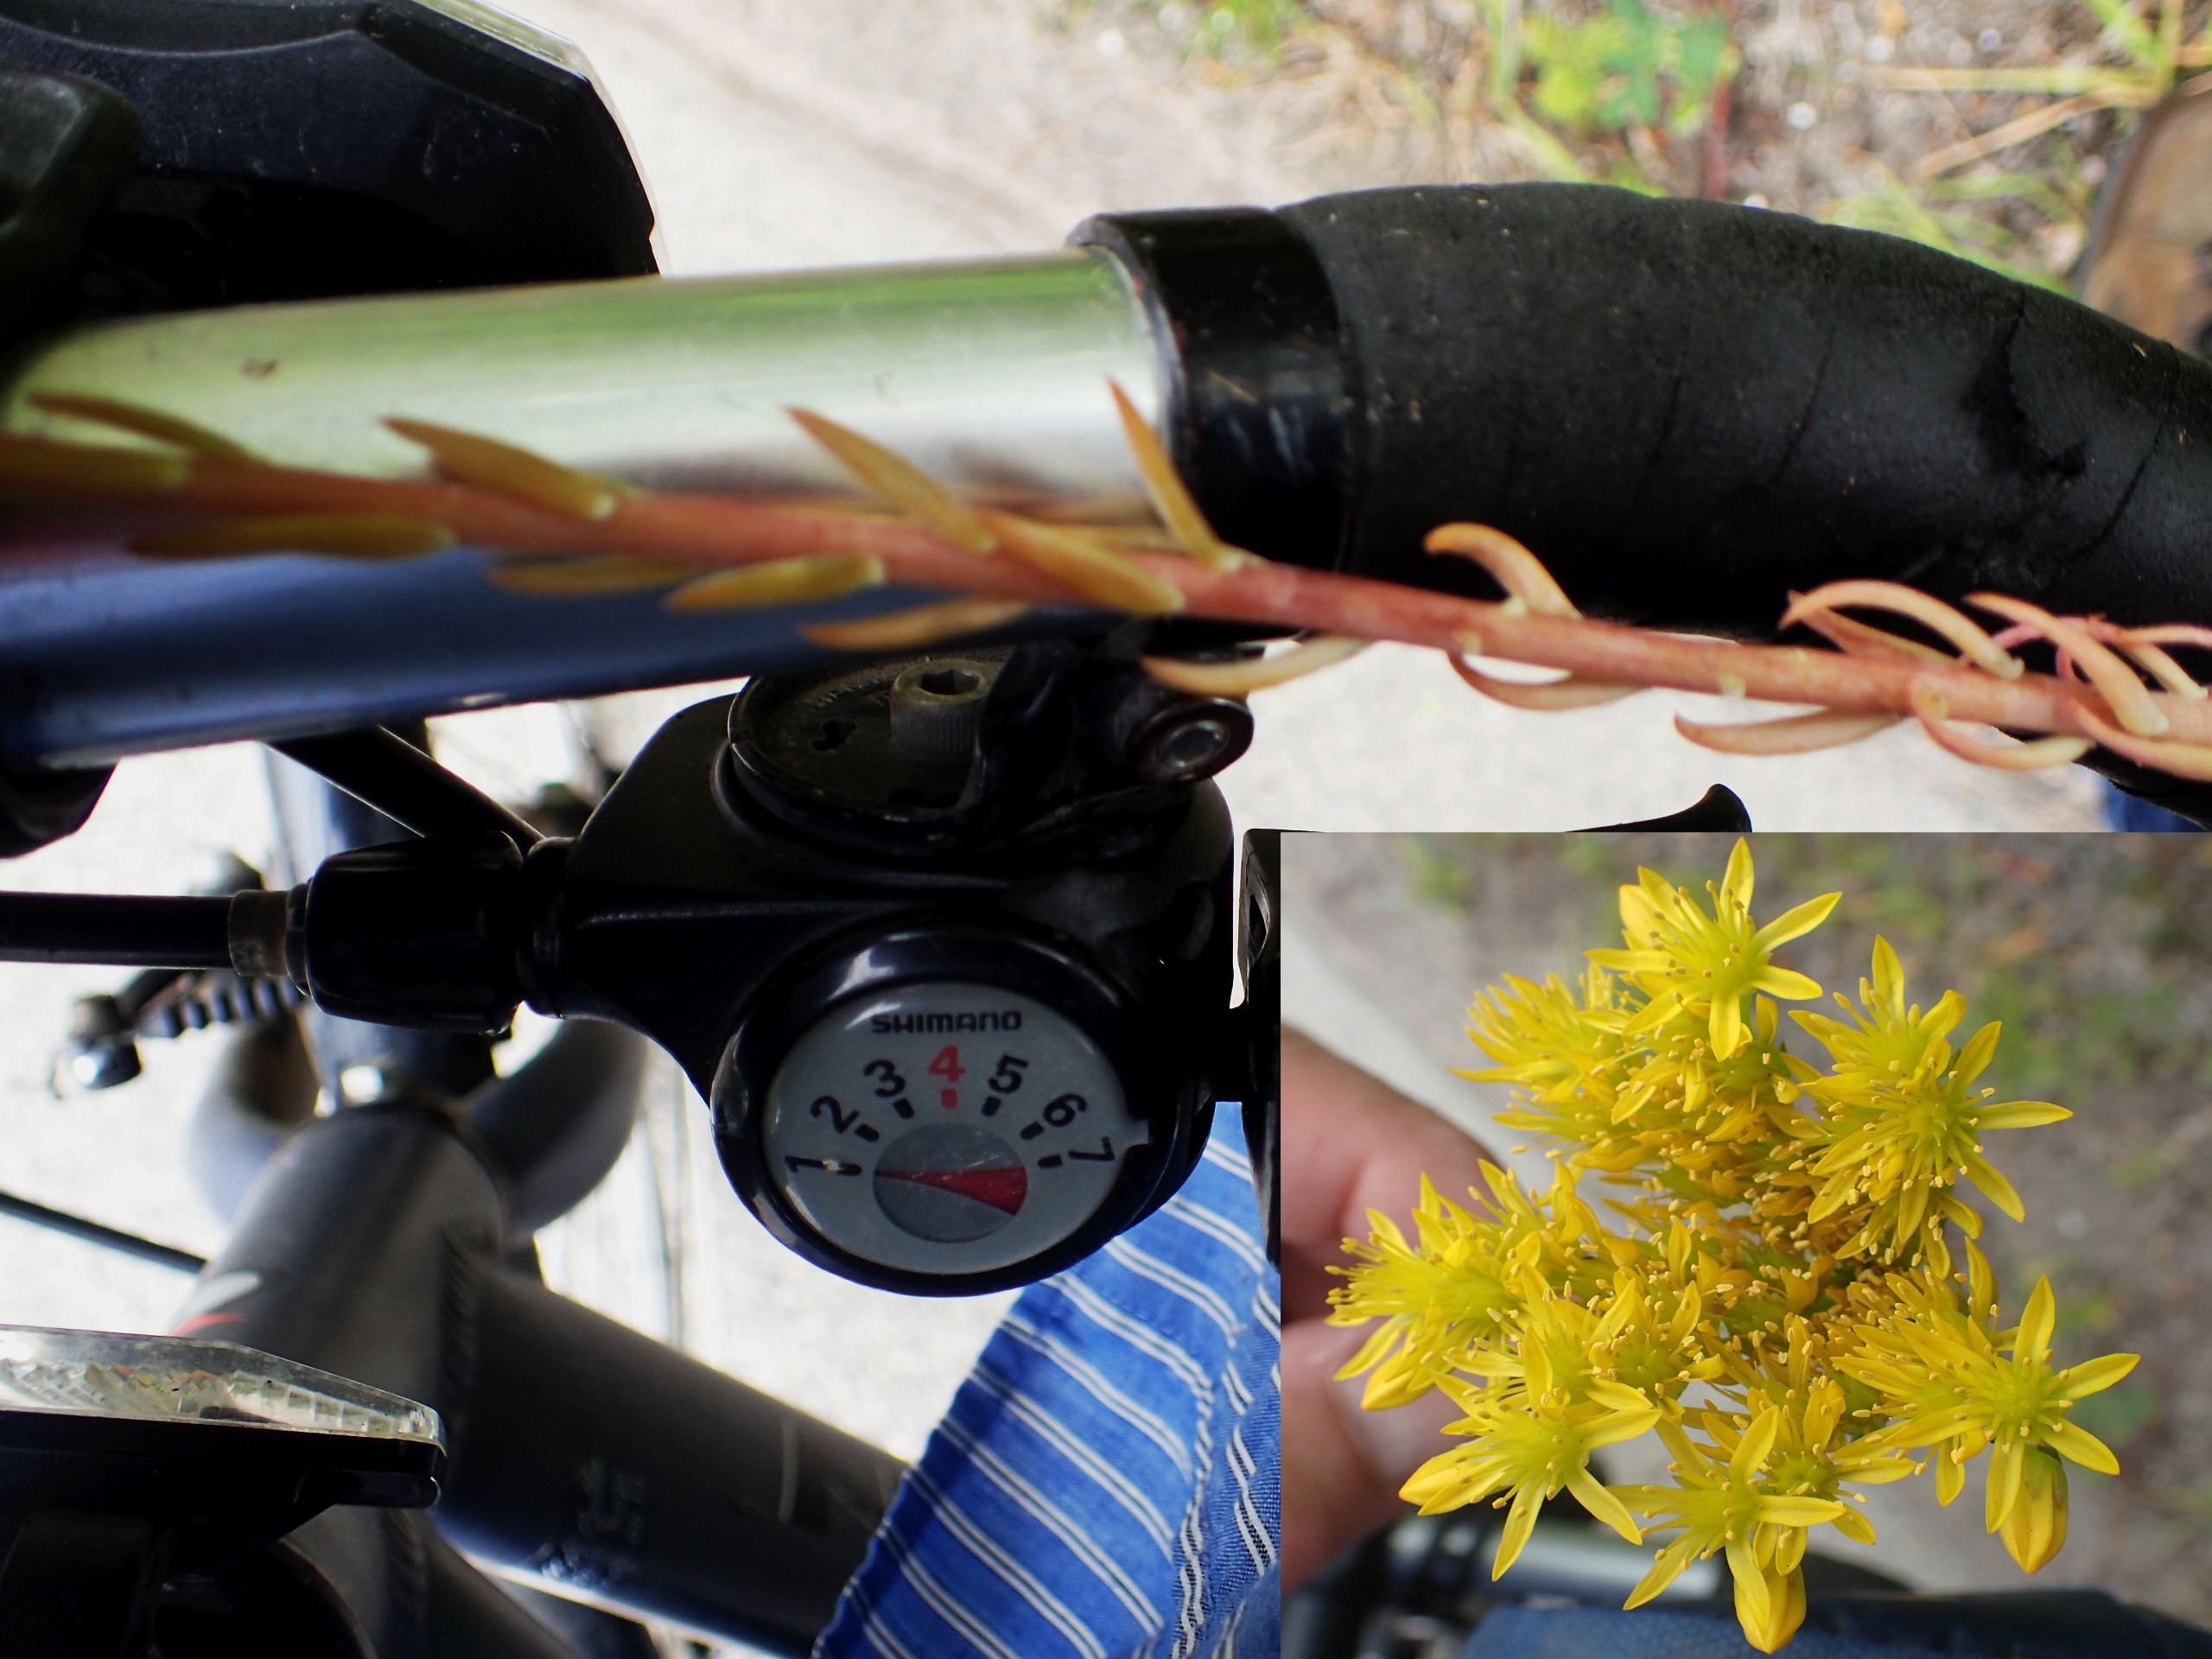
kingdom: Plantae
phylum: Tracheophyta
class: Magnoliopsida
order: Saxifragales
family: Crassulaceae
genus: Petrosedum
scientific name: Petrosedum rupestre
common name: Bjerg-stenurt
